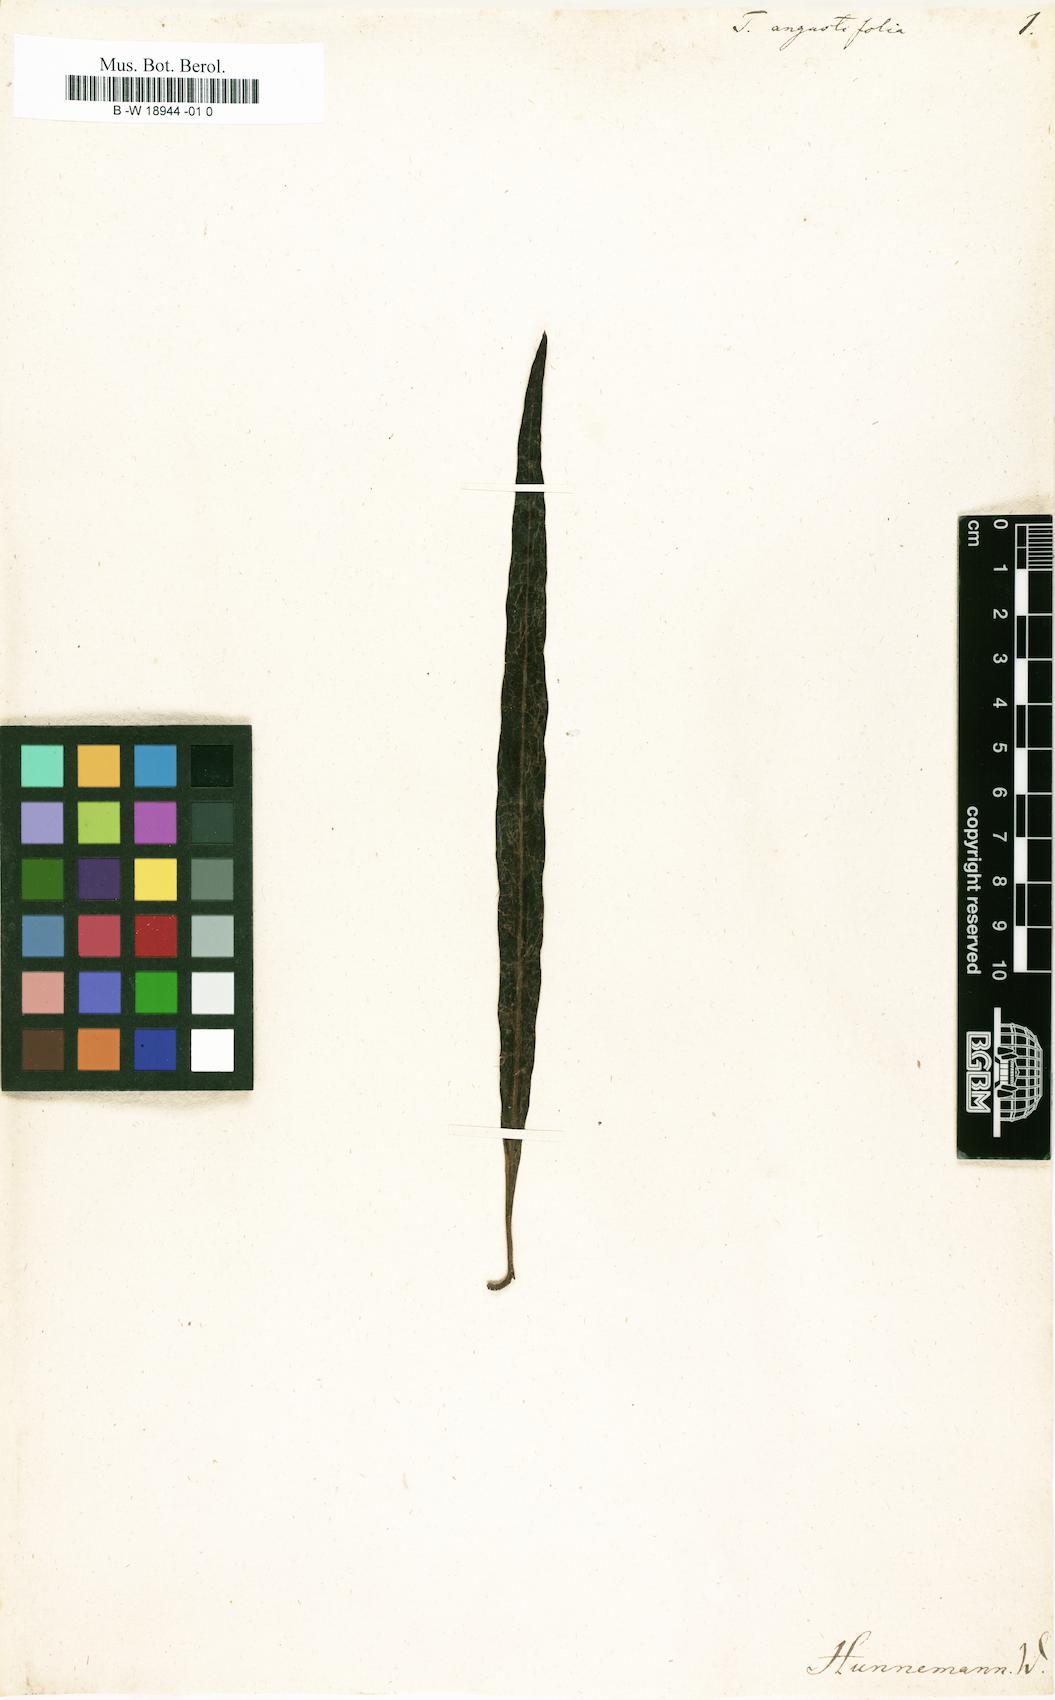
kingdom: Plantae
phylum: Tracheophyta
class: Magnoliopsida
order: Myrtales
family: Combretaceae
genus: Terminalia
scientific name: Terminalia
